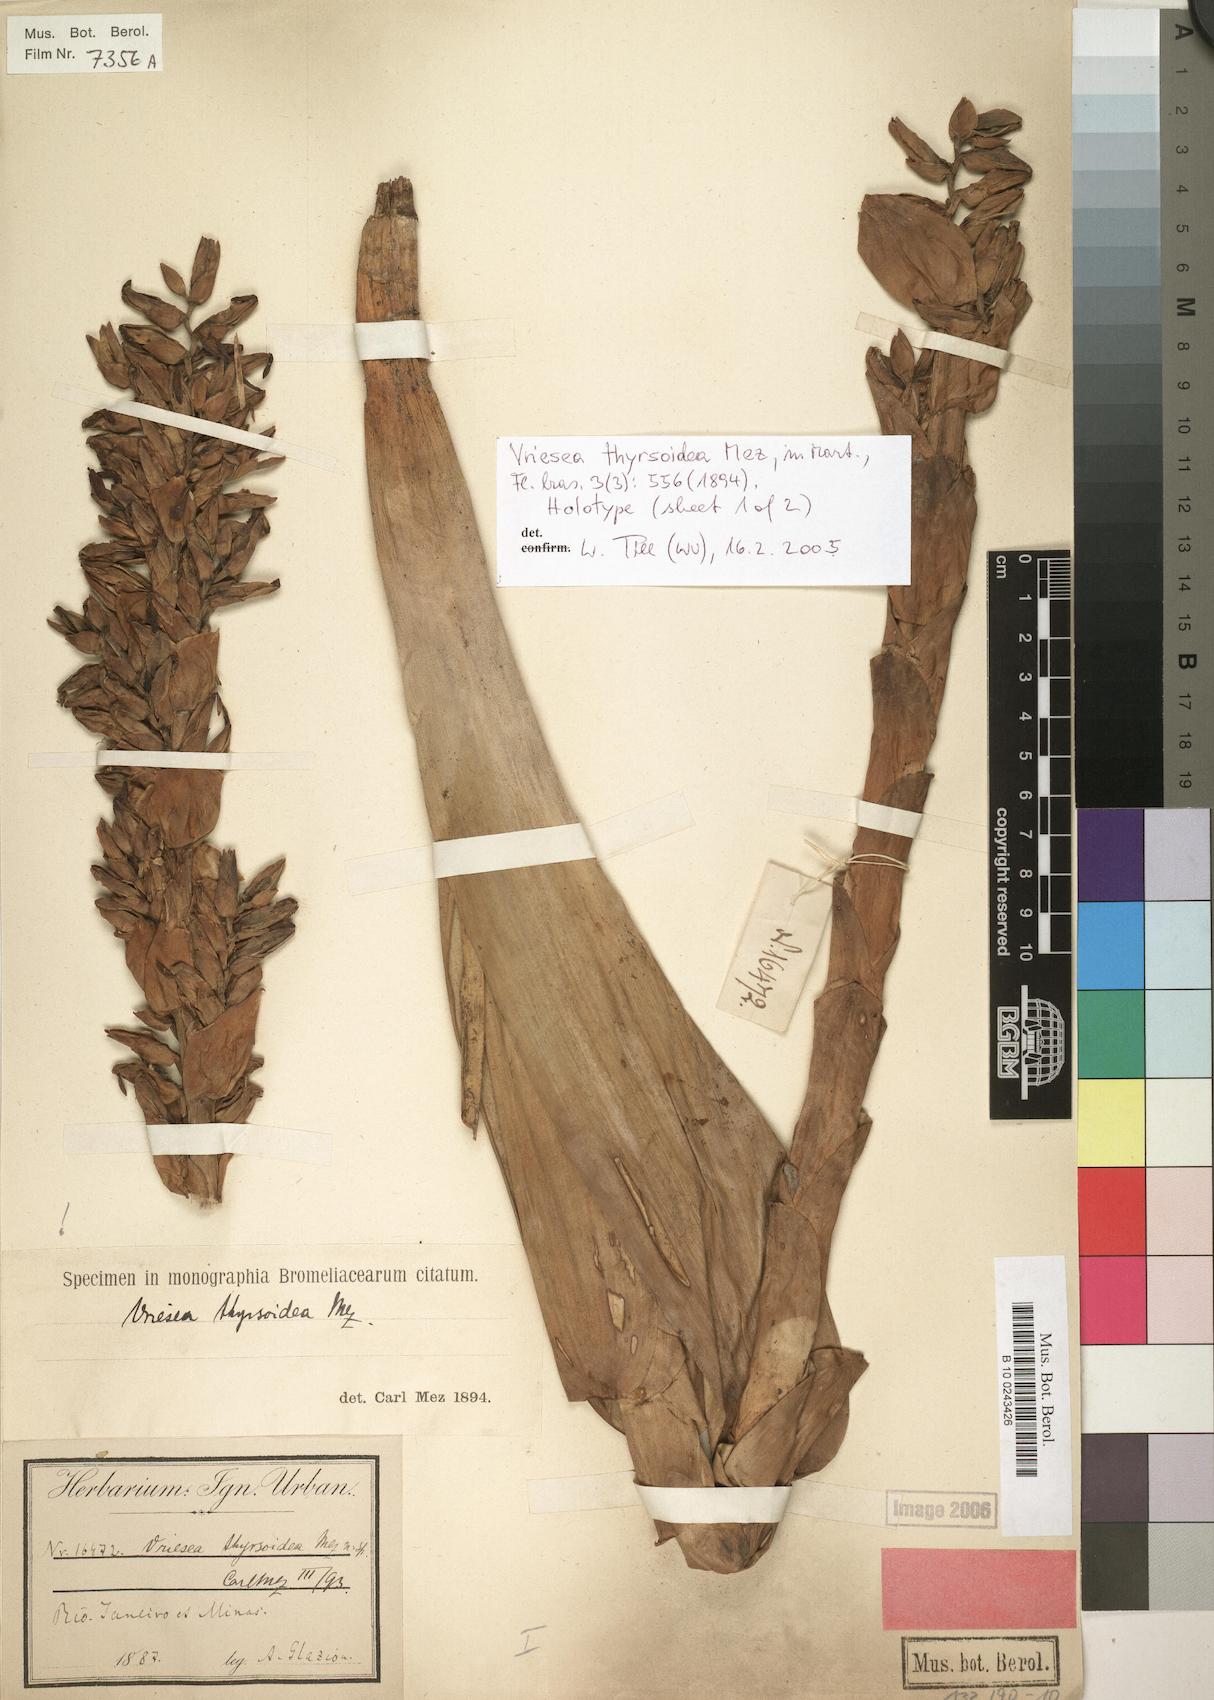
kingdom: Plantae
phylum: Tracheophyta
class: Liliopsida
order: Poales
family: Bromeliaceae
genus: Vriesea
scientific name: Vriesea thyrsoidea
